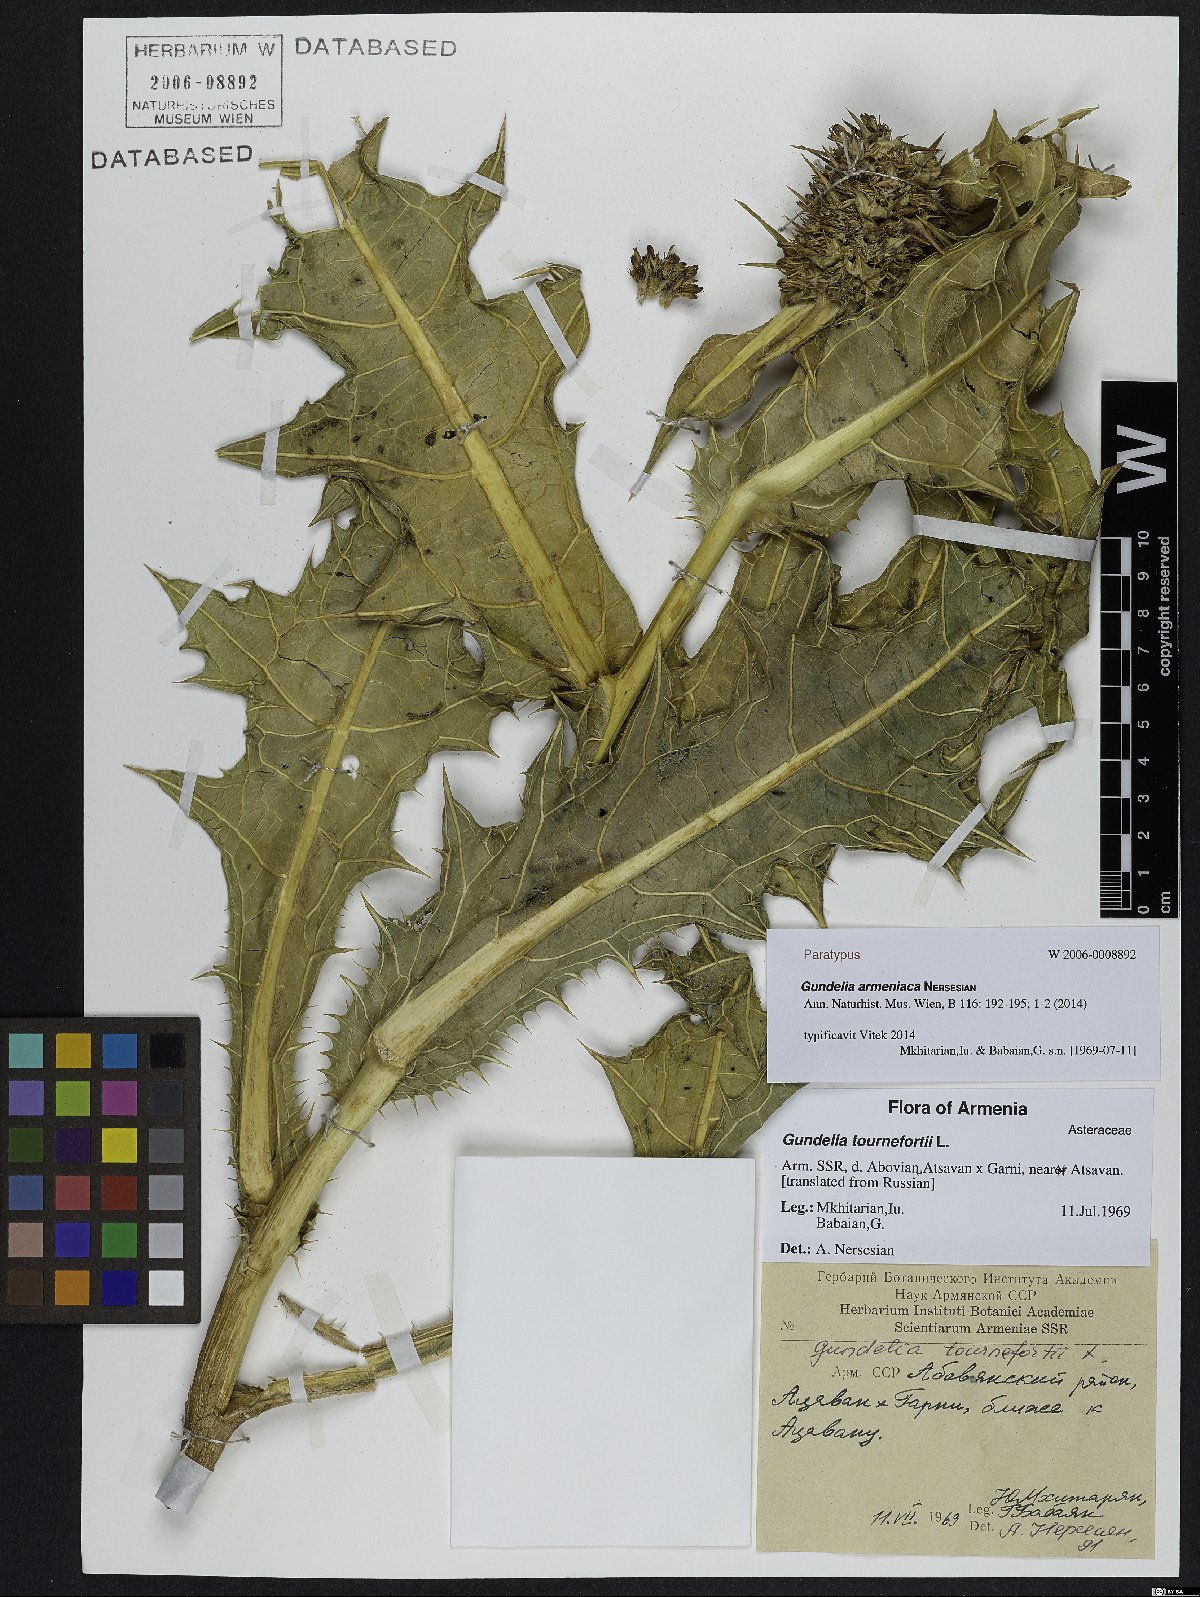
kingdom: Plantae
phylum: Tracheophyta
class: Magnoliopsida
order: Asterales
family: Asteraceae
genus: Gundelia
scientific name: Gundelia armeniaca
